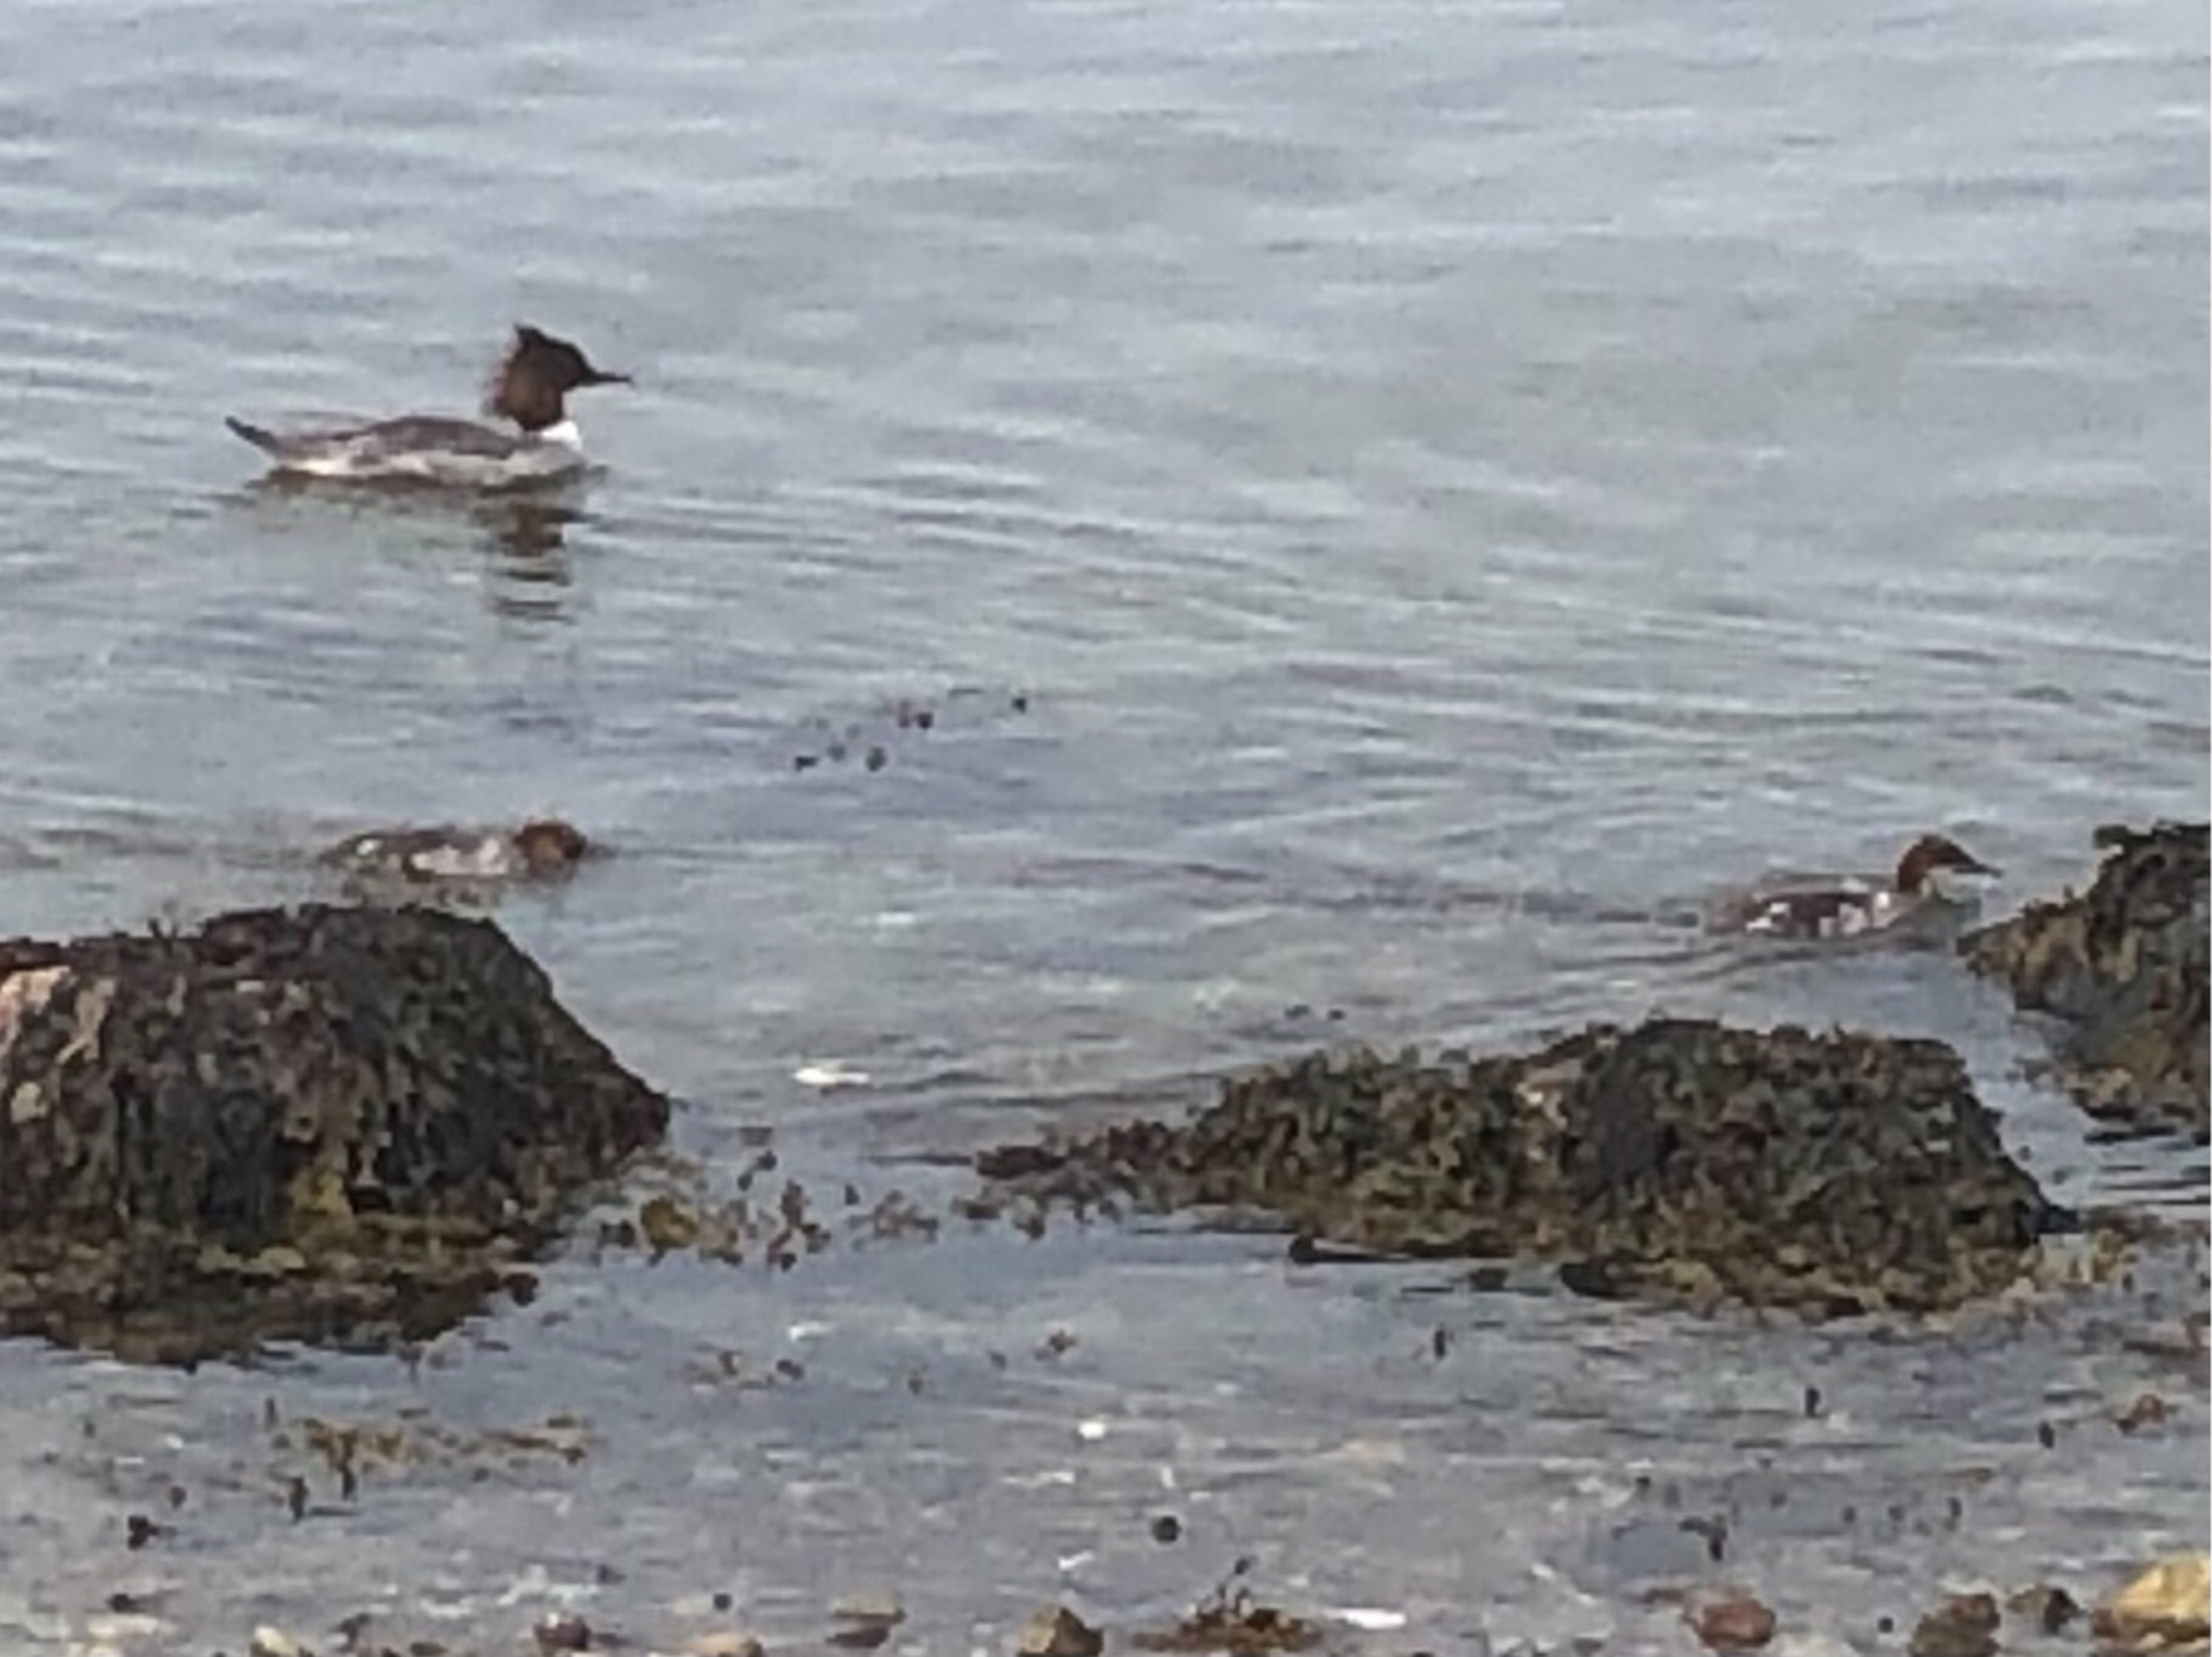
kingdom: Animalia
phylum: Chordata
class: Aves
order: Anseriformes
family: Anatidae
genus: Mergus
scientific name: Mergus merganser
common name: Stor skallesluger
